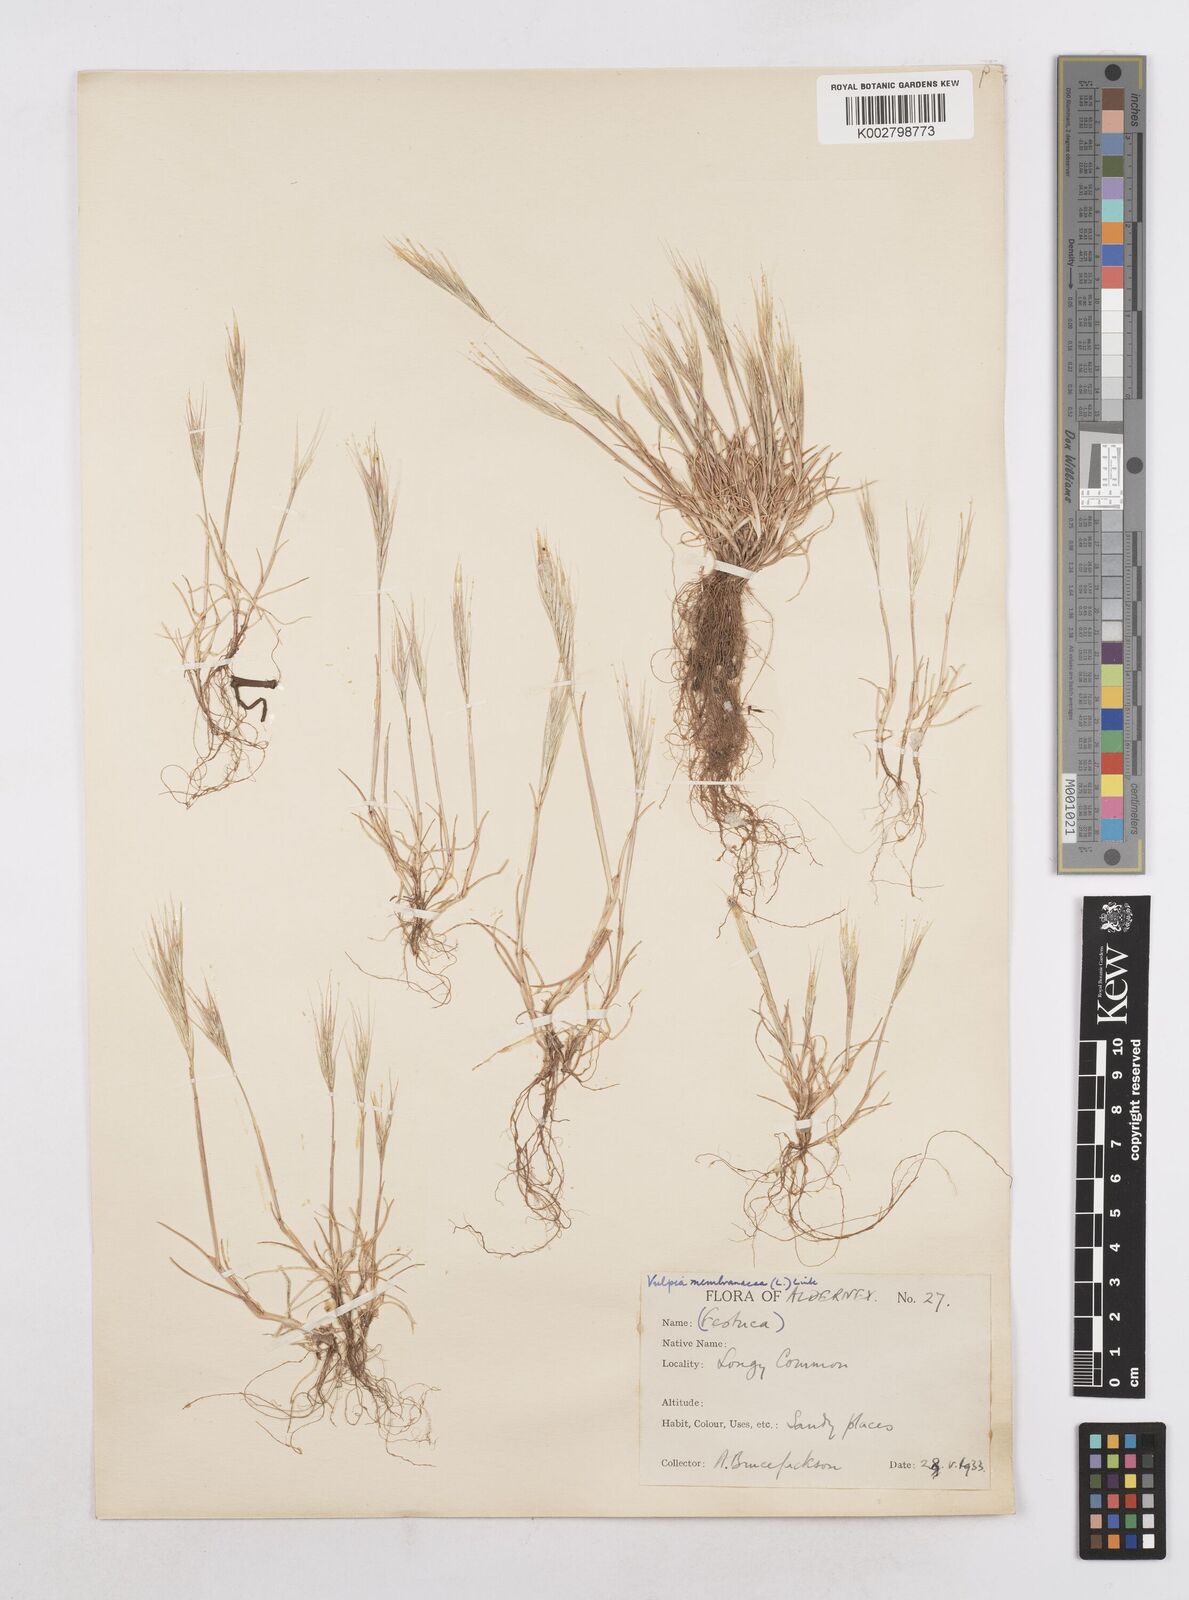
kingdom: Plantae
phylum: Tracheophyta
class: Liliopsida
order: Poales
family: Poaceae
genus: Festuca
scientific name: Festuca fasciculata
